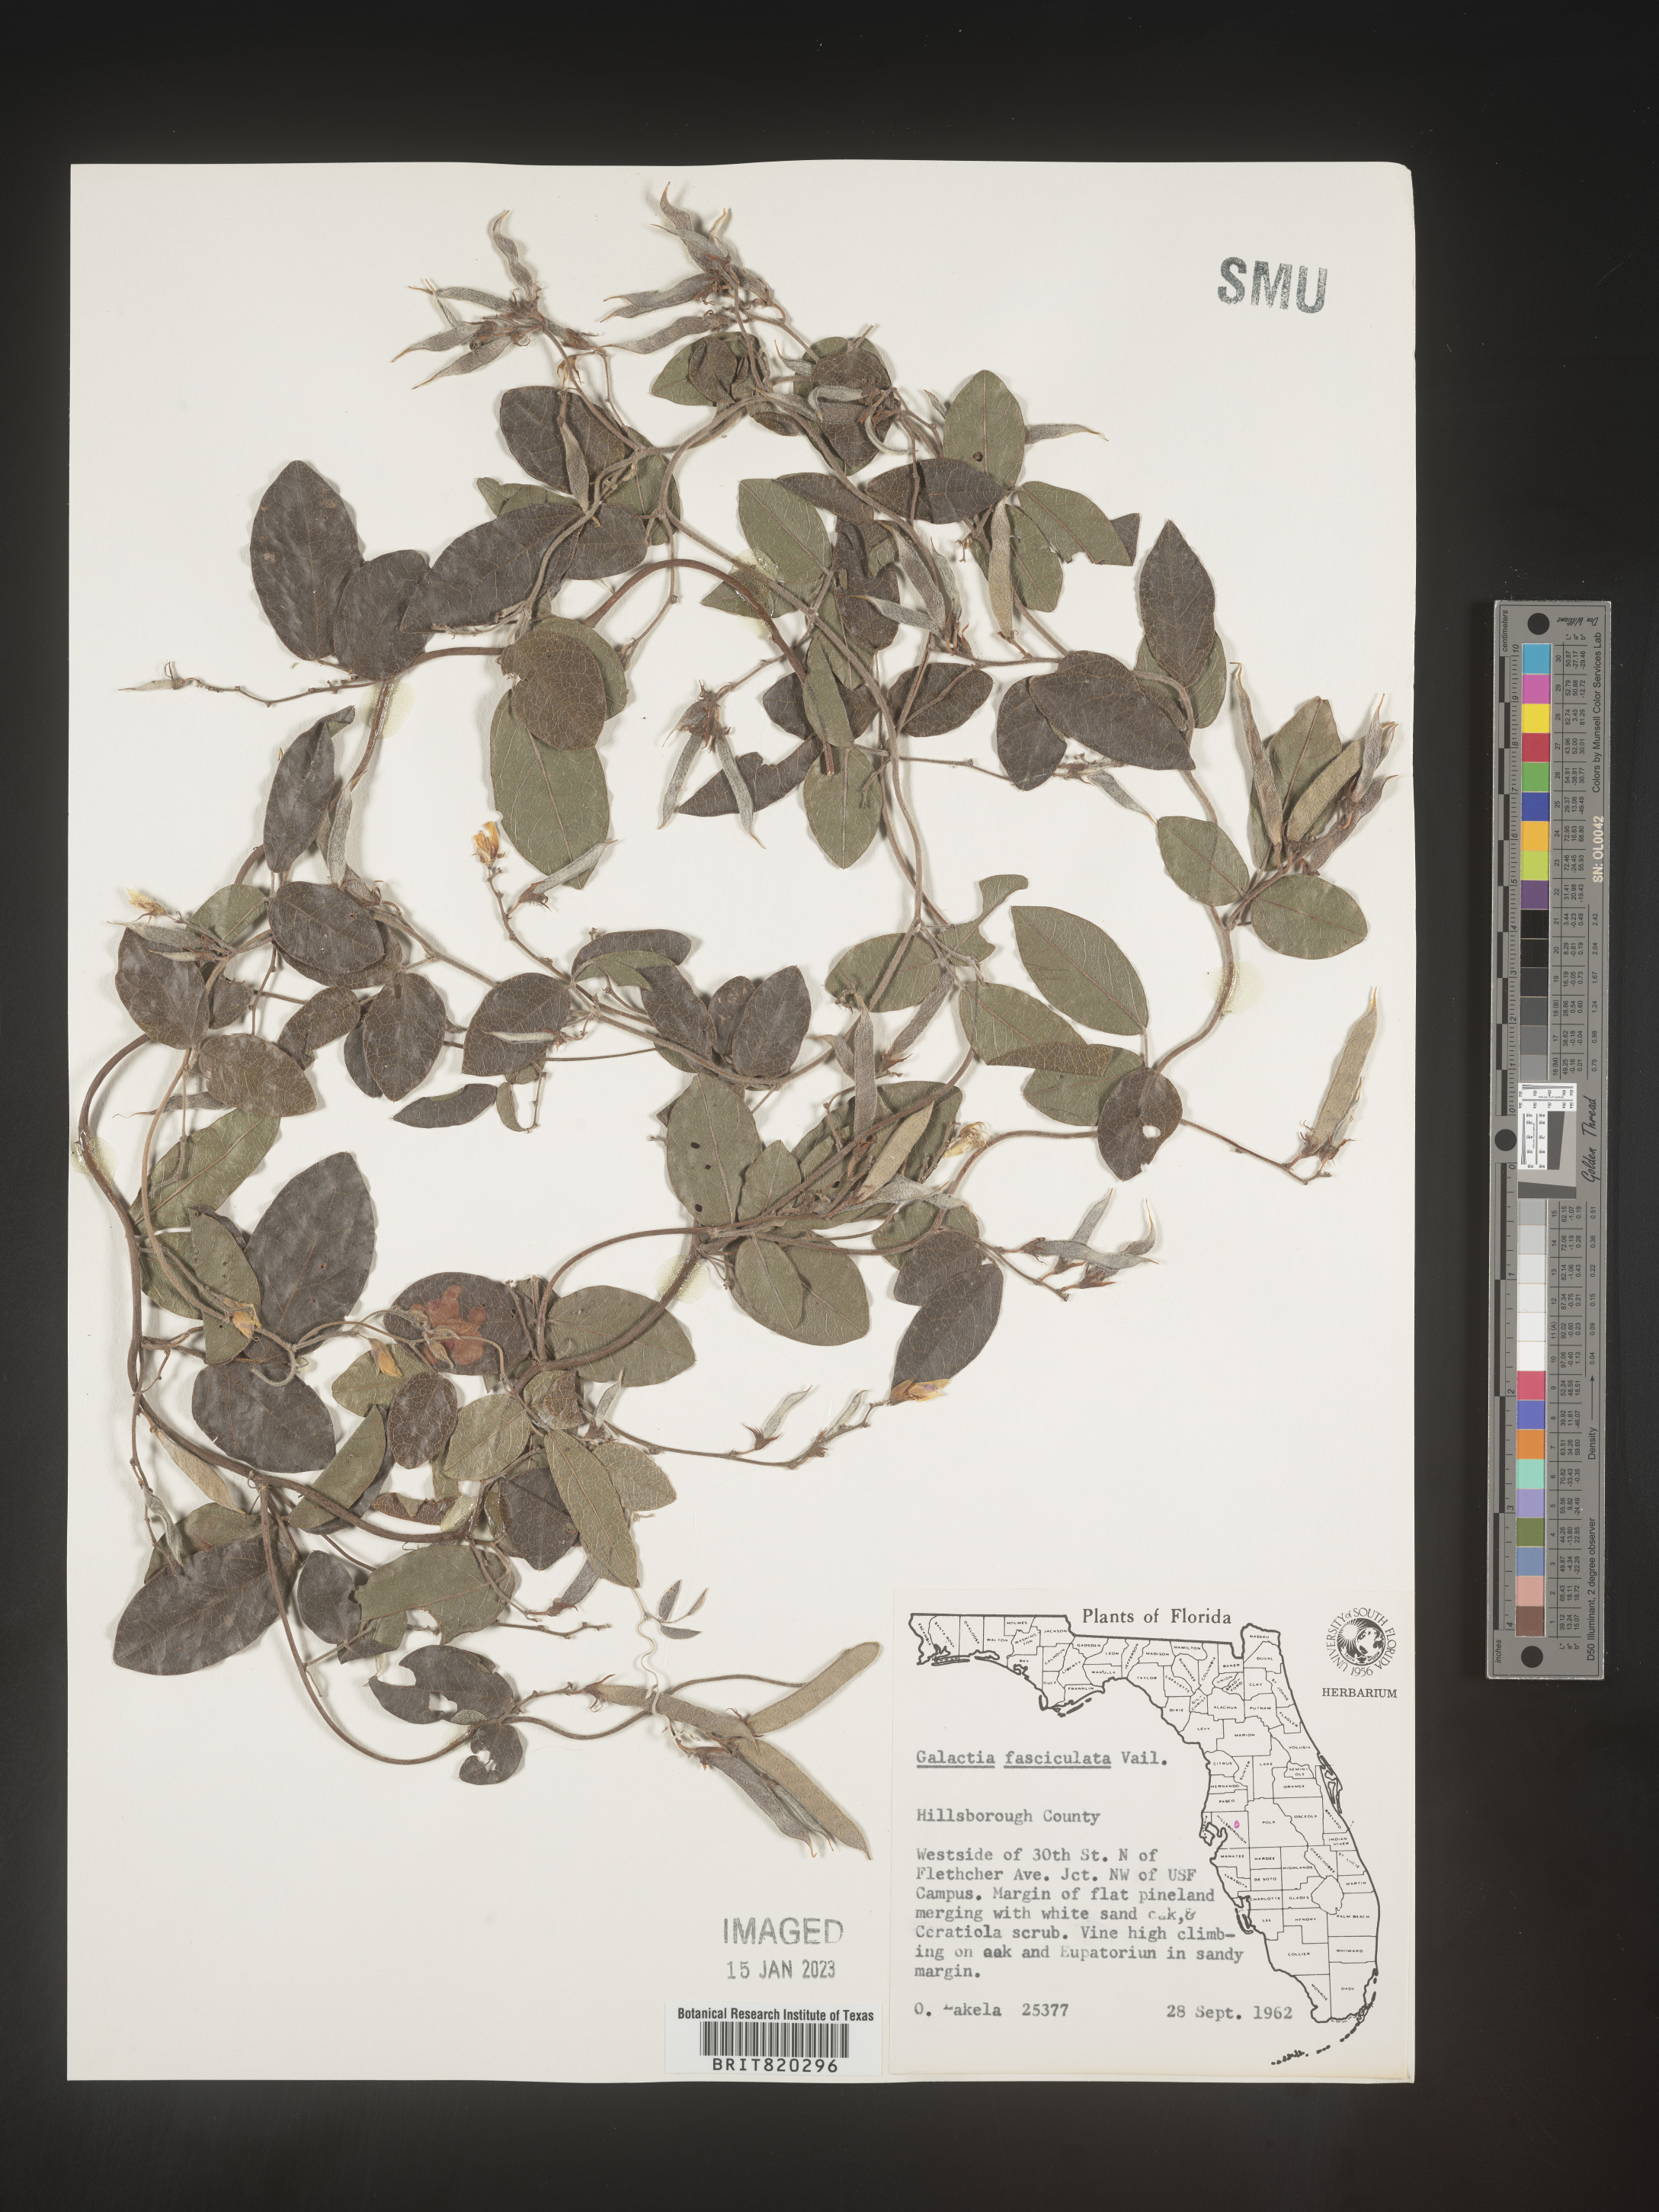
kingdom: Plantae
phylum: Tracheophyta
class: Magnoliopsida
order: Fabales
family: Fabaceae
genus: Galactia
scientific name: Galactia floridana
